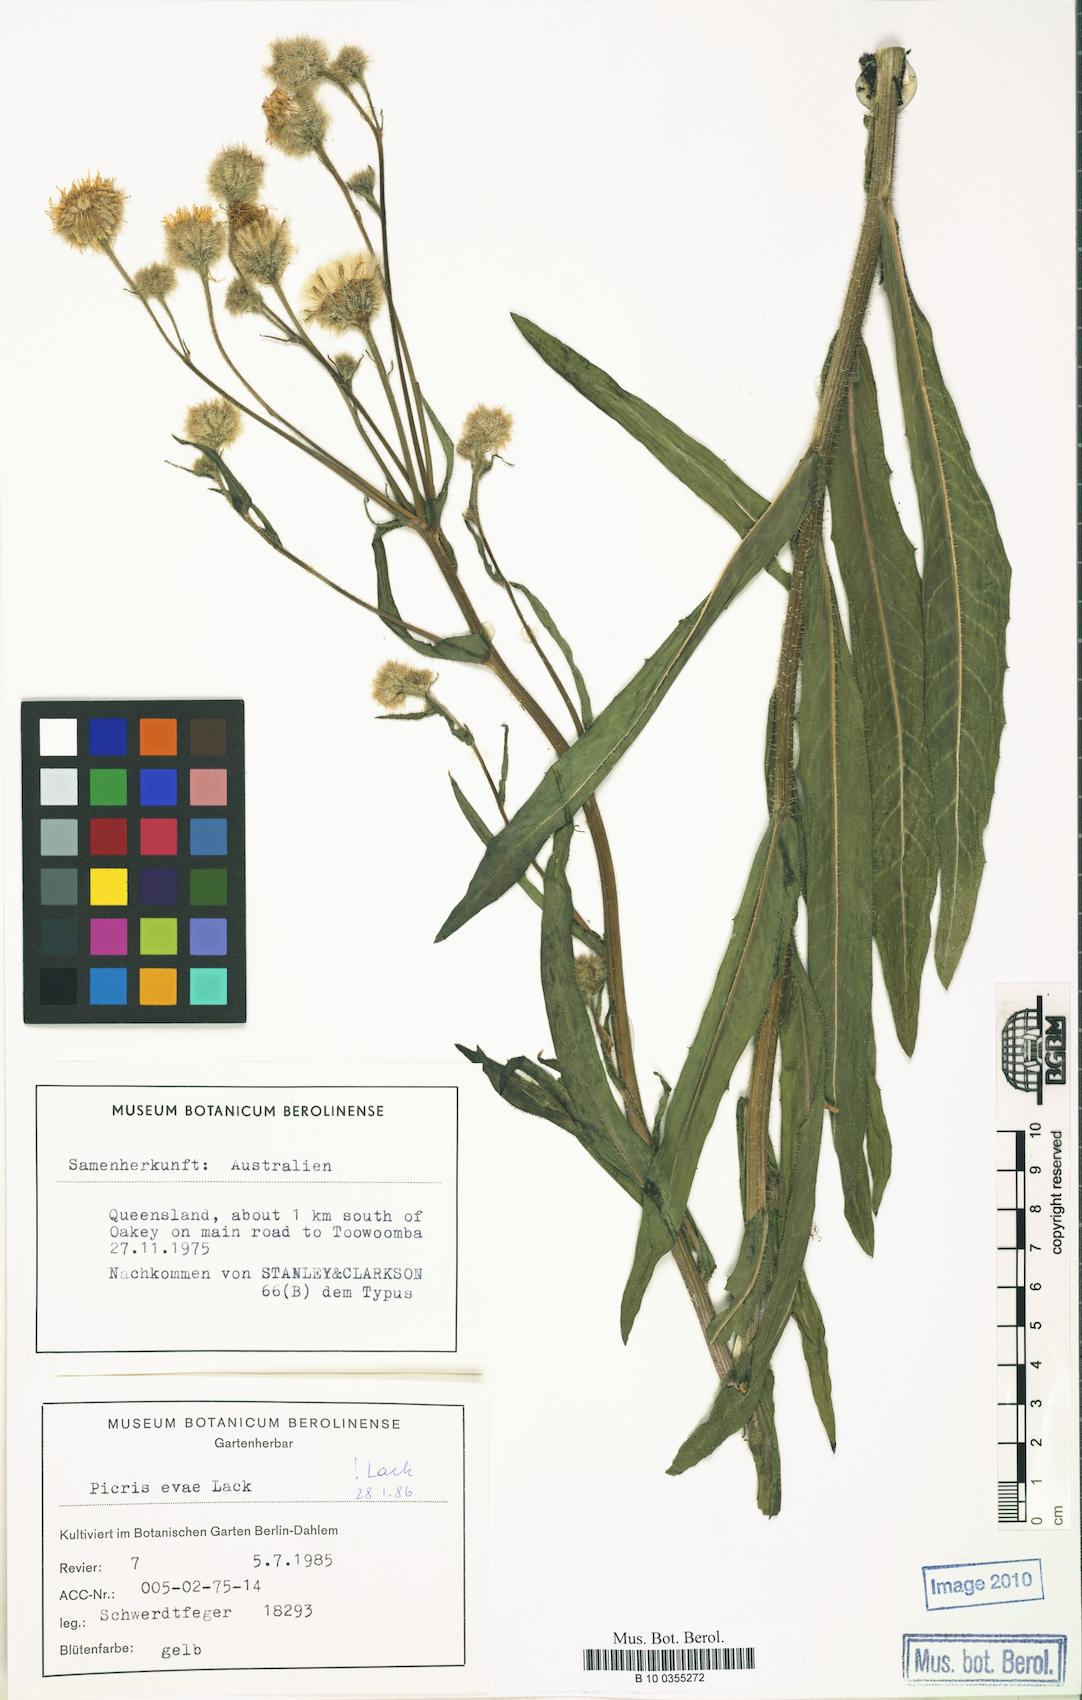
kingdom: Plantae
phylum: Tracheophyta
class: Magnoliopsida
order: Asterales
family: Asteraceae
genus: Picris
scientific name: Picris evae
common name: Hawkweed
